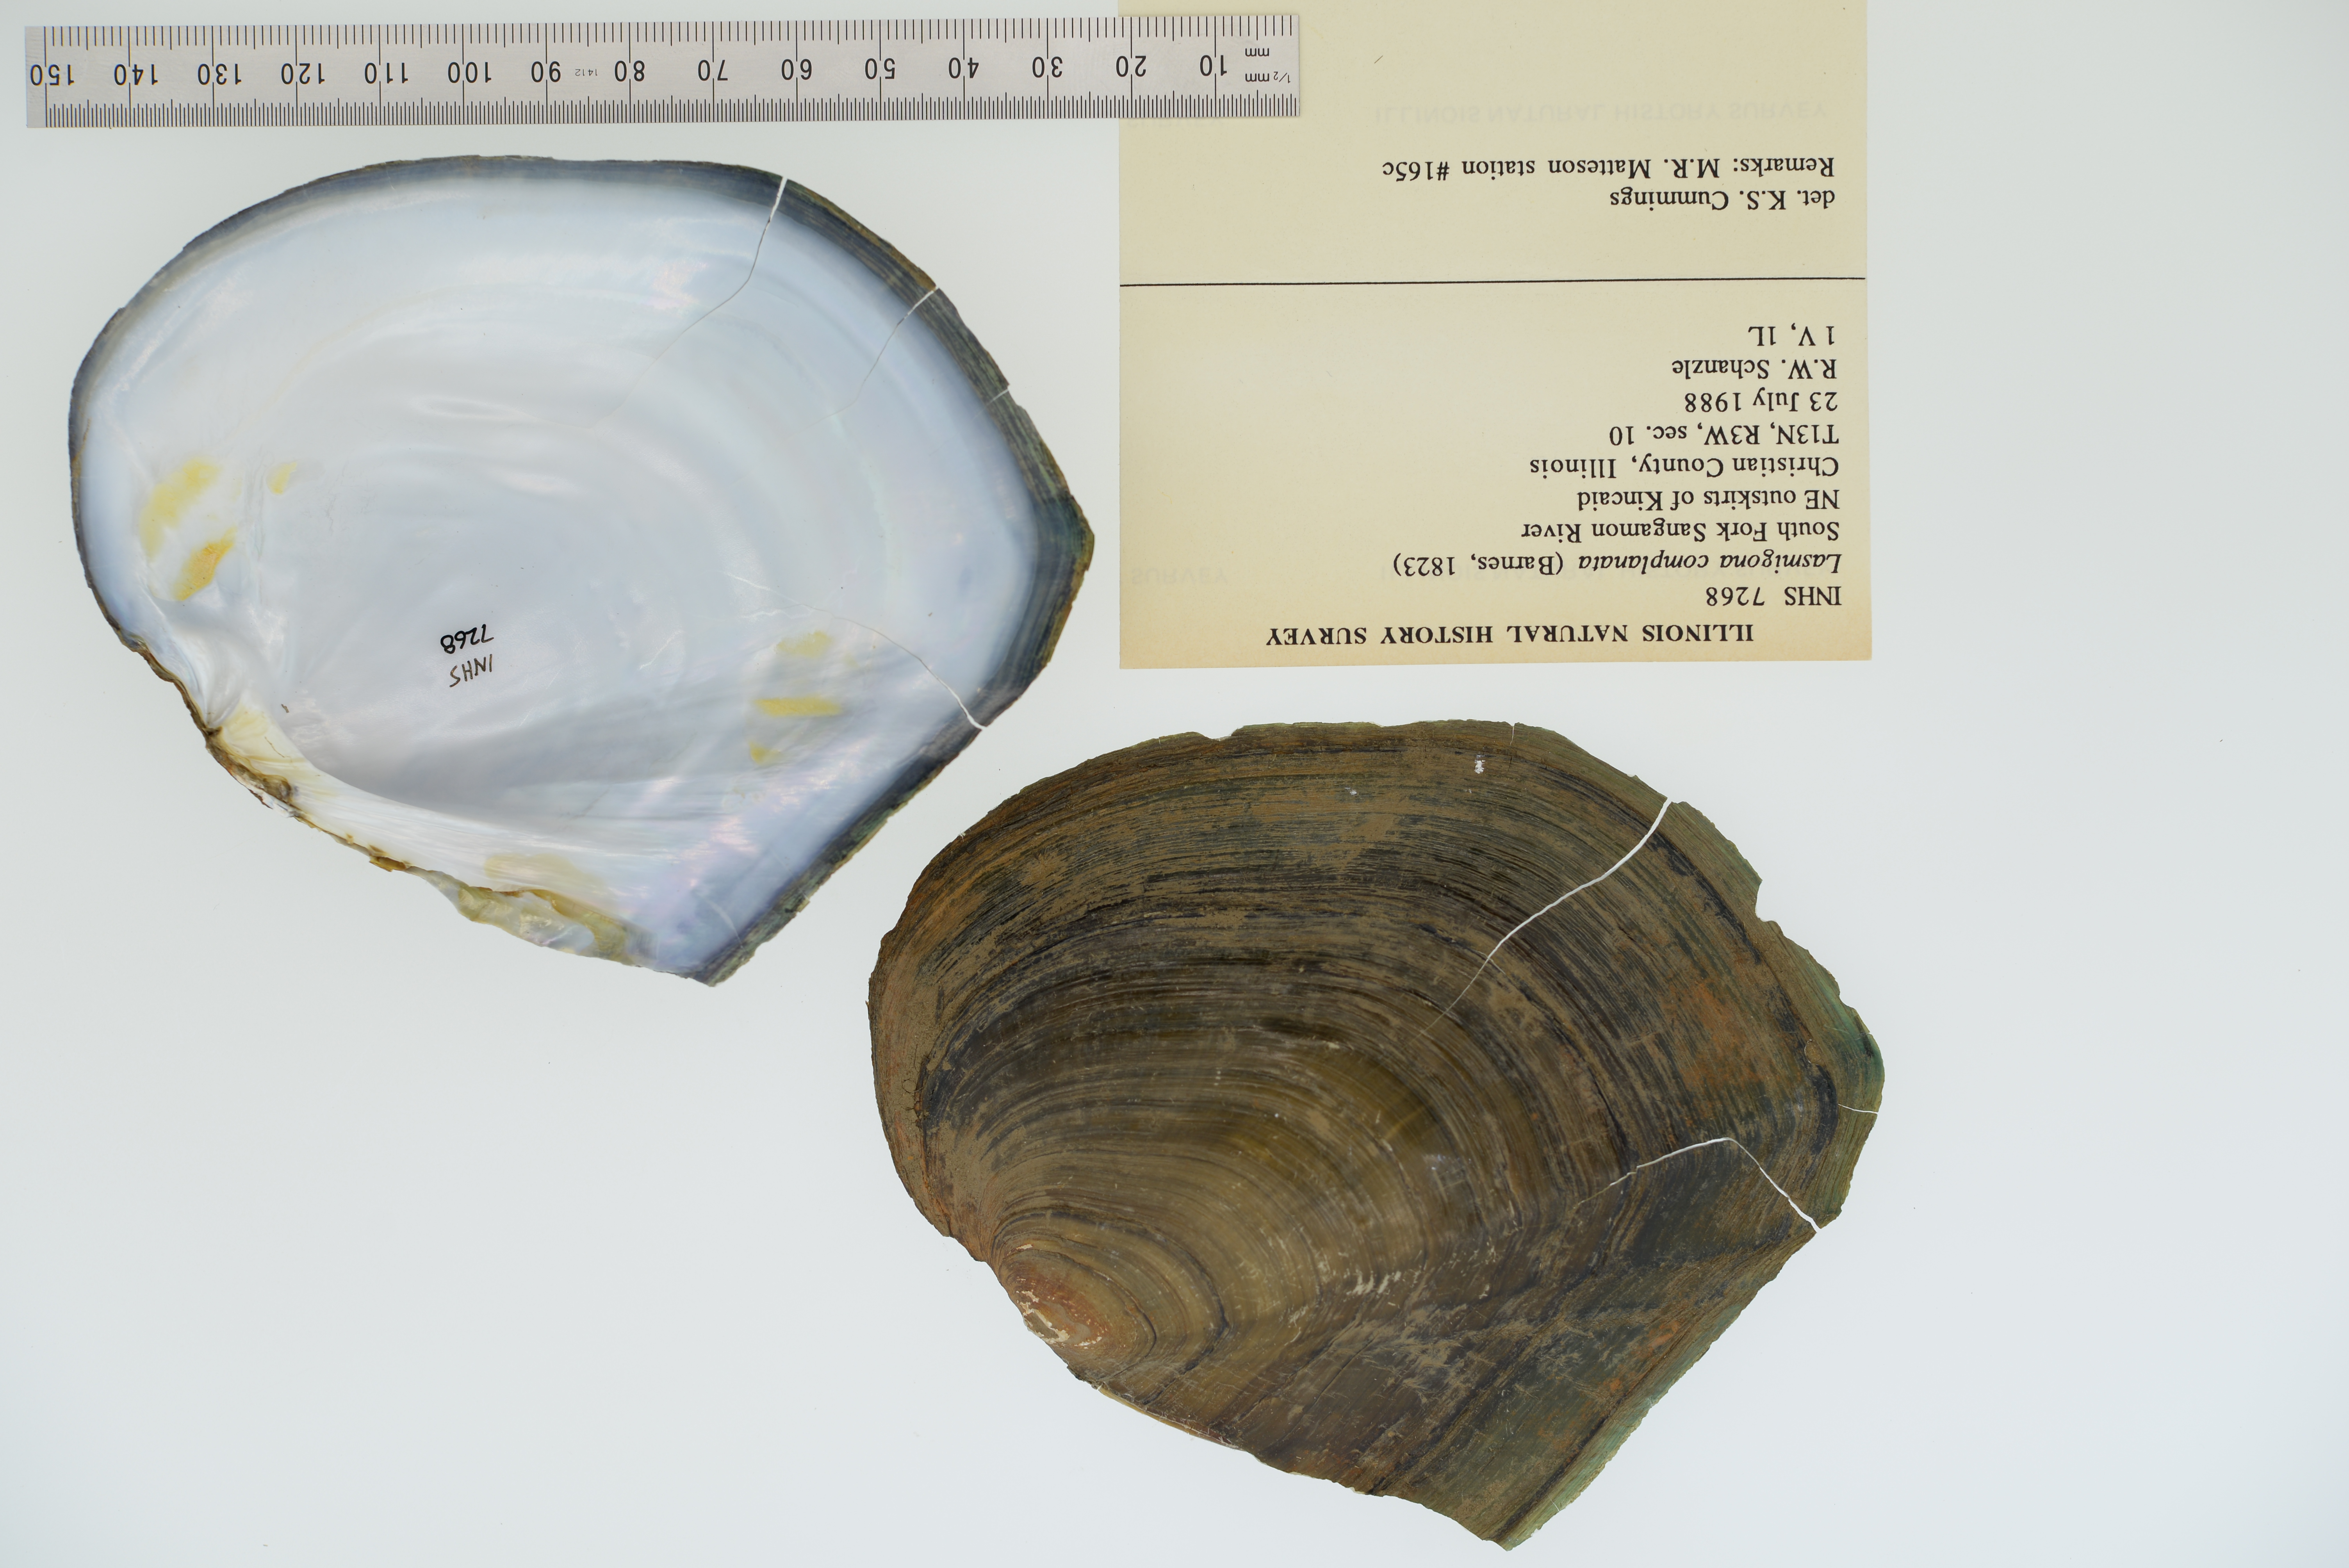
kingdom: Animalia
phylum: Mollusca
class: Bivalvia
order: Unionida
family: Unionidae
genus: Lasmigona
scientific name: Lasmigona complanata
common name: White heelsplitter
